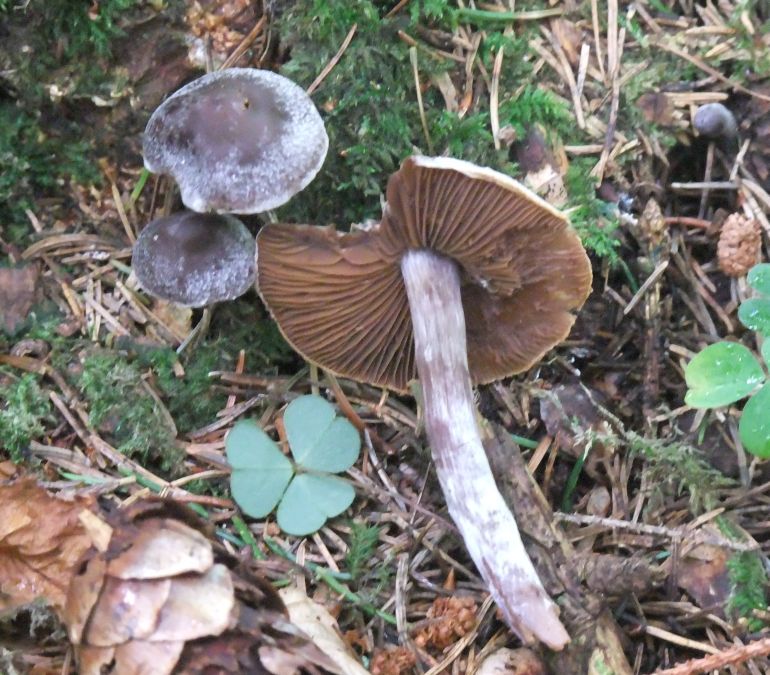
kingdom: Fungi
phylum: Basidiomycota
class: Agaricomycetes
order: Agaricales
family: Cortinariaceae
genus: Cortinarius
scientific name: Cortinarius
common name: pelargonie-slørhat
